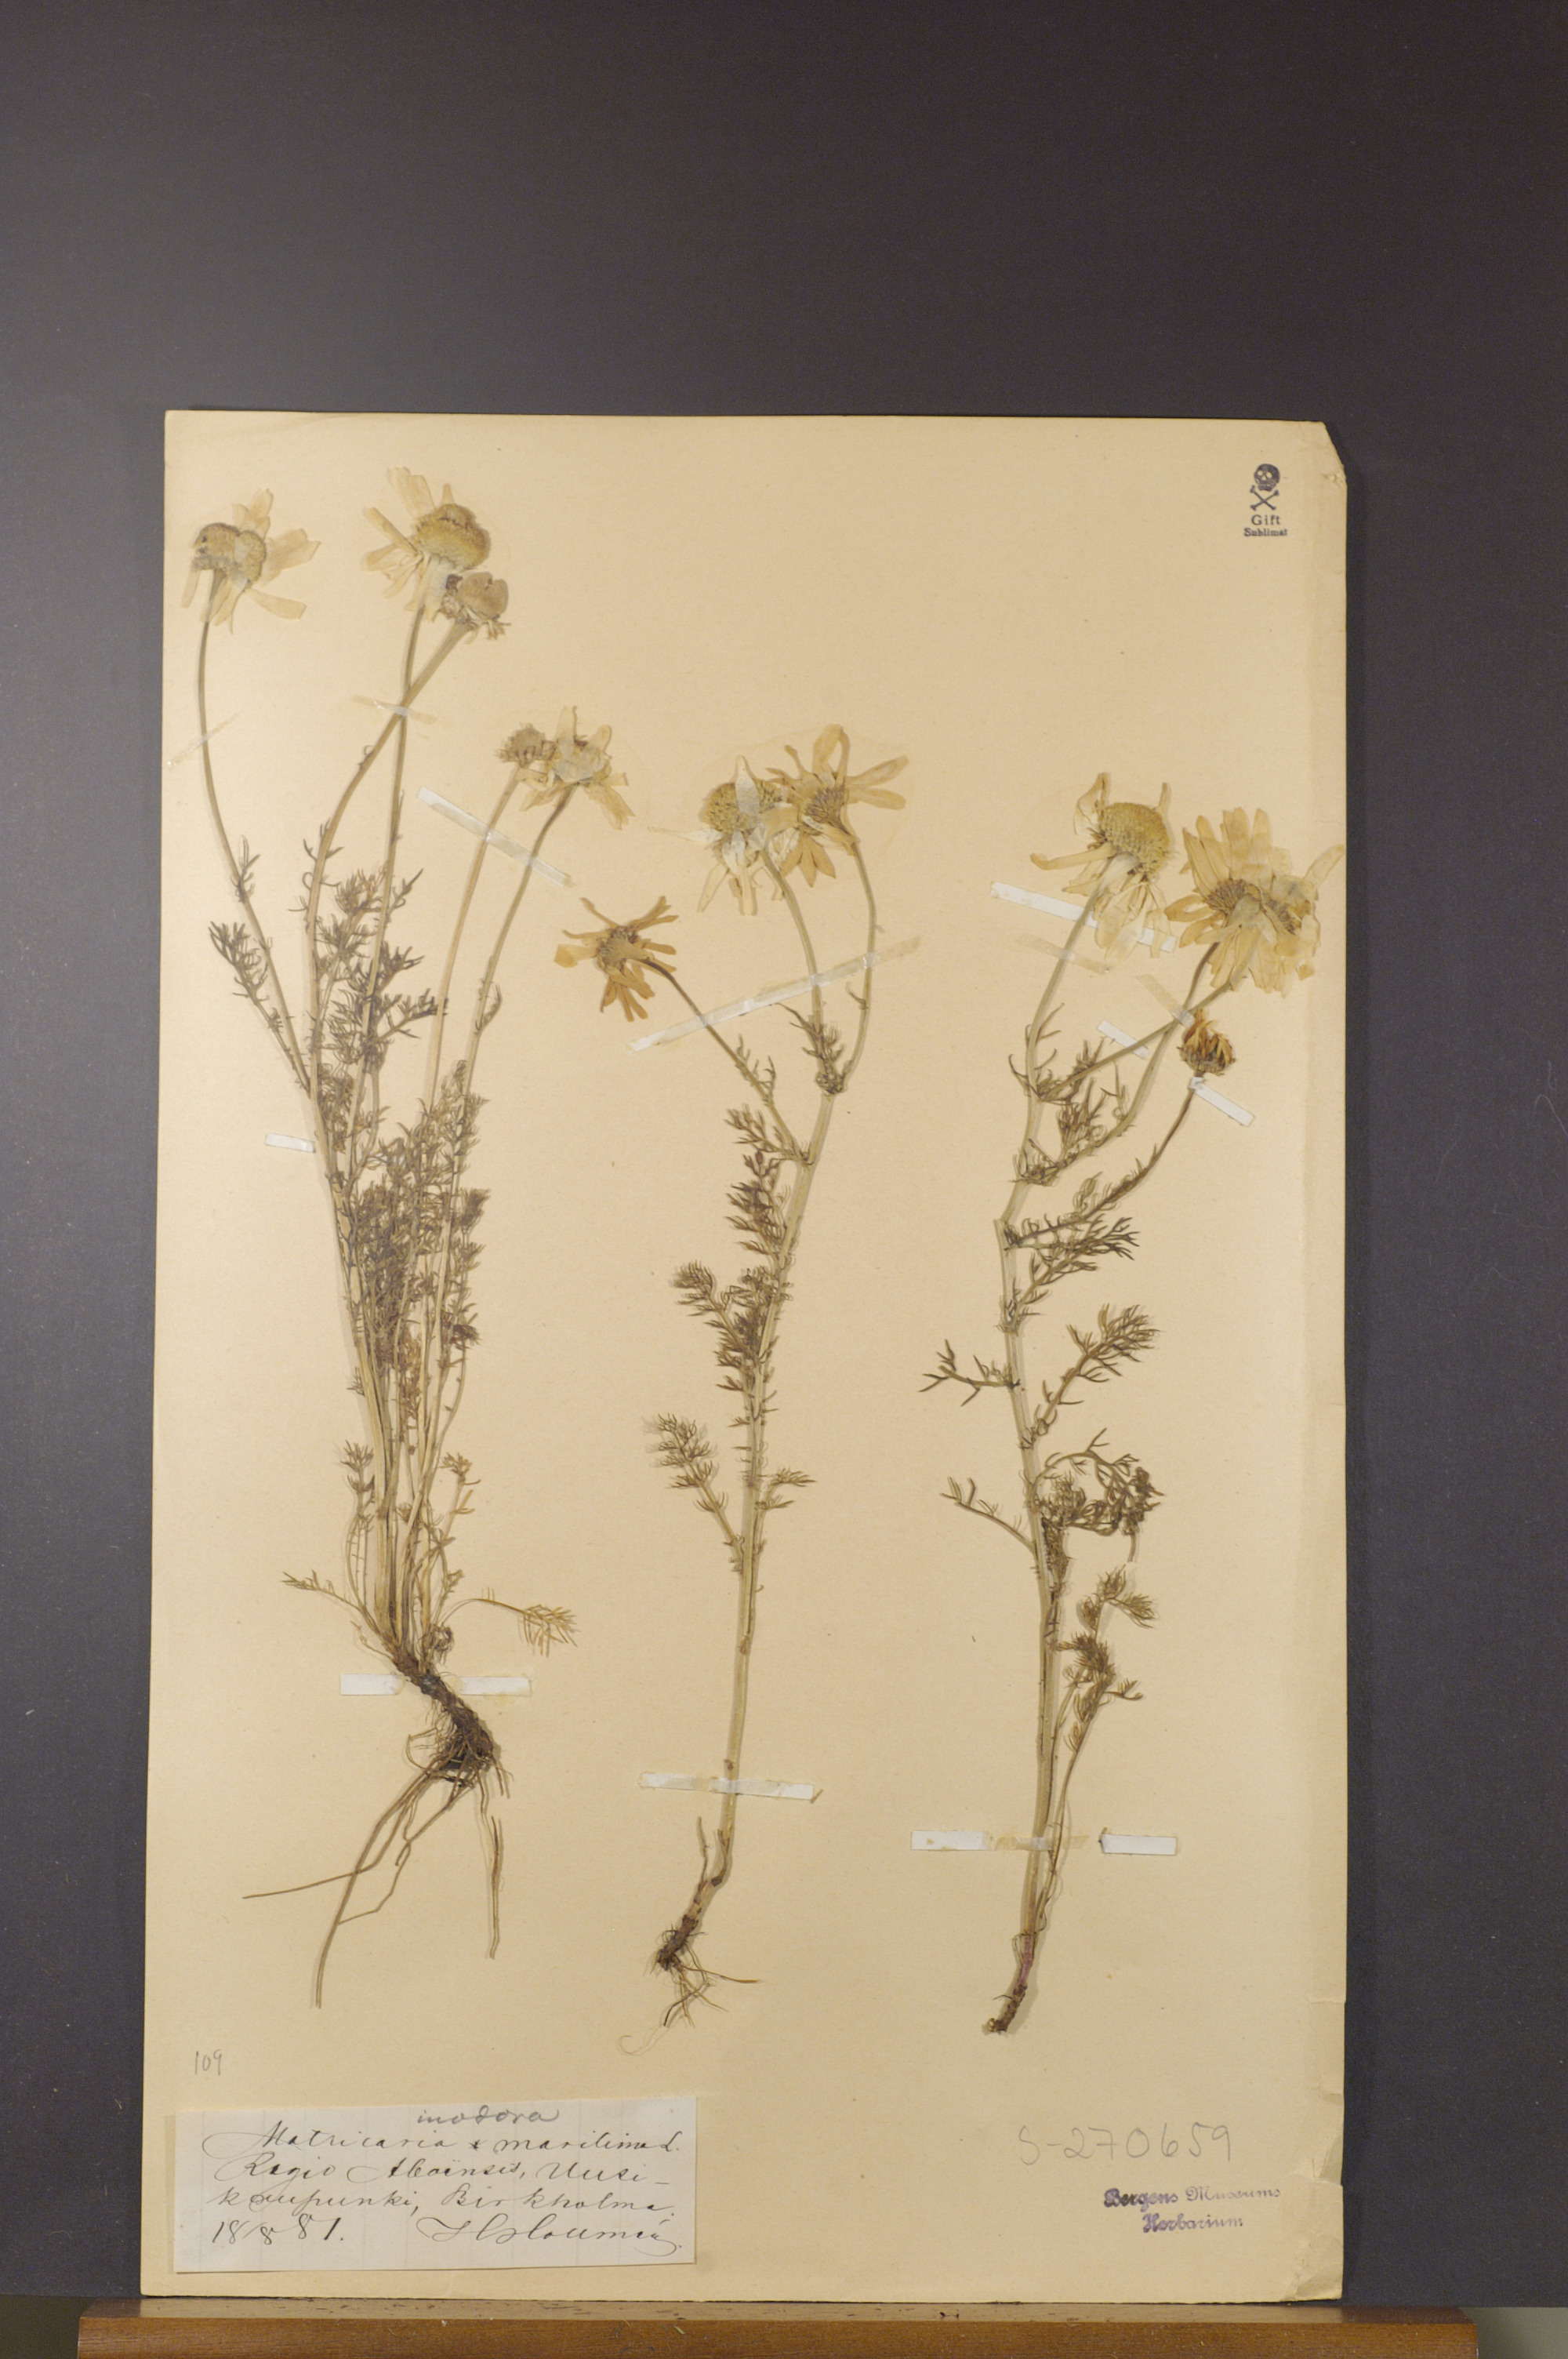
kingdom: Plantae
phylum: Tracheophyta
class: Magnoliopsida
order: Asterales
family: Asteraceae
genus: Tripleurospermum
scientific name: Tripleurospermum maritimum
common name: Sea mayweed
